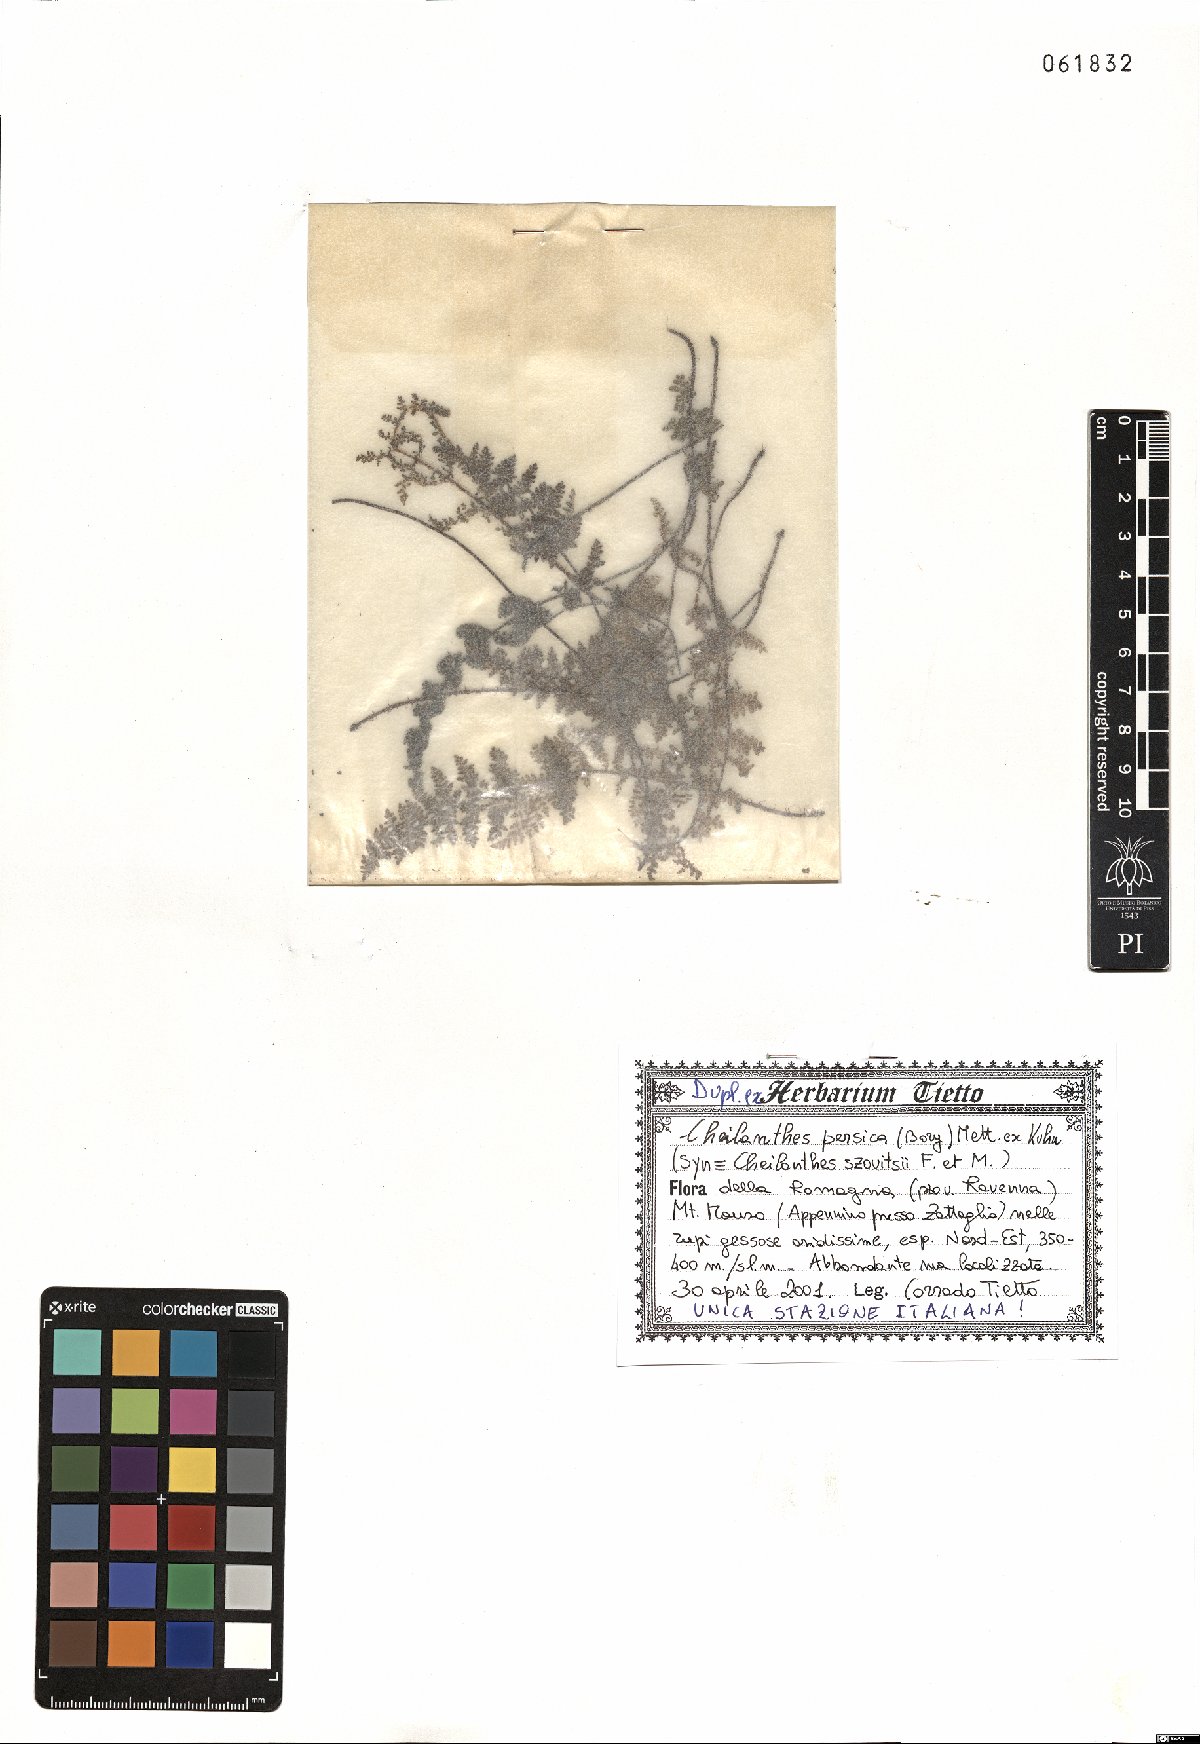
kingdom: Plantae
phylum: Tracheophyta
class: Polypodiopsida
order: Polypodiales
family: Pteridaceae
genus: Cheilanthes
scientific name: Cheilanthes persica
